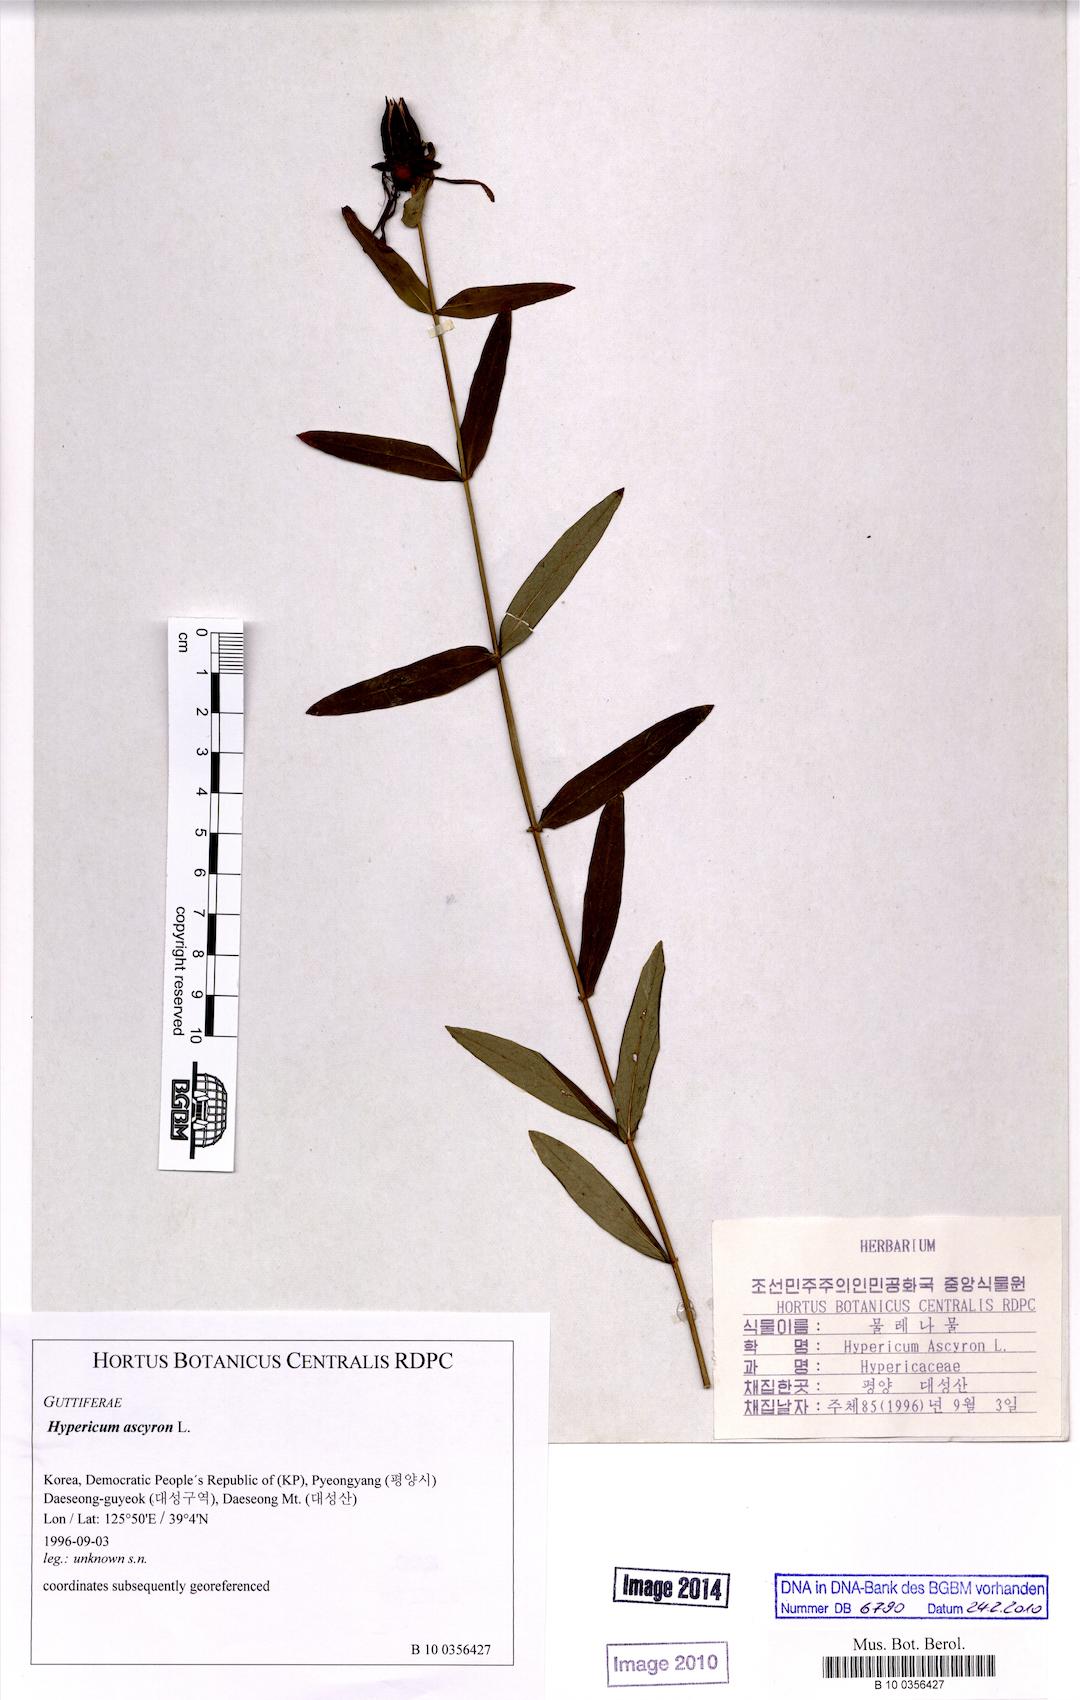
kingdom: Plantae
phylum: Tracheophyta
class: Magnoliopsida
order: Malpighiales
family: Hypericaceae
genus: Hypericum
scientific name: Hypericum ascyron
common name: Giant st. john's-wort
